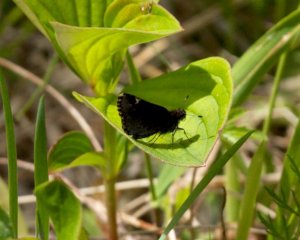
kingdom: Animalia
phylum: Arthropoda
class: Insecta
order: Lepidoptera
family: Hesperiidae
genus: Mastor
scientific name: Mastor vialis
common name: Common Roadside-Skipper
